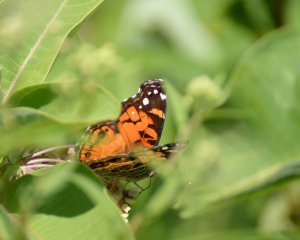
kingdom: Animalia
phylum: Arthropoda
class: Insecta
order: Lepidoptera
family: Nymphalidae
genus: Vanessa
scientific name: Vanessa virginiensis
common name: American Lady
